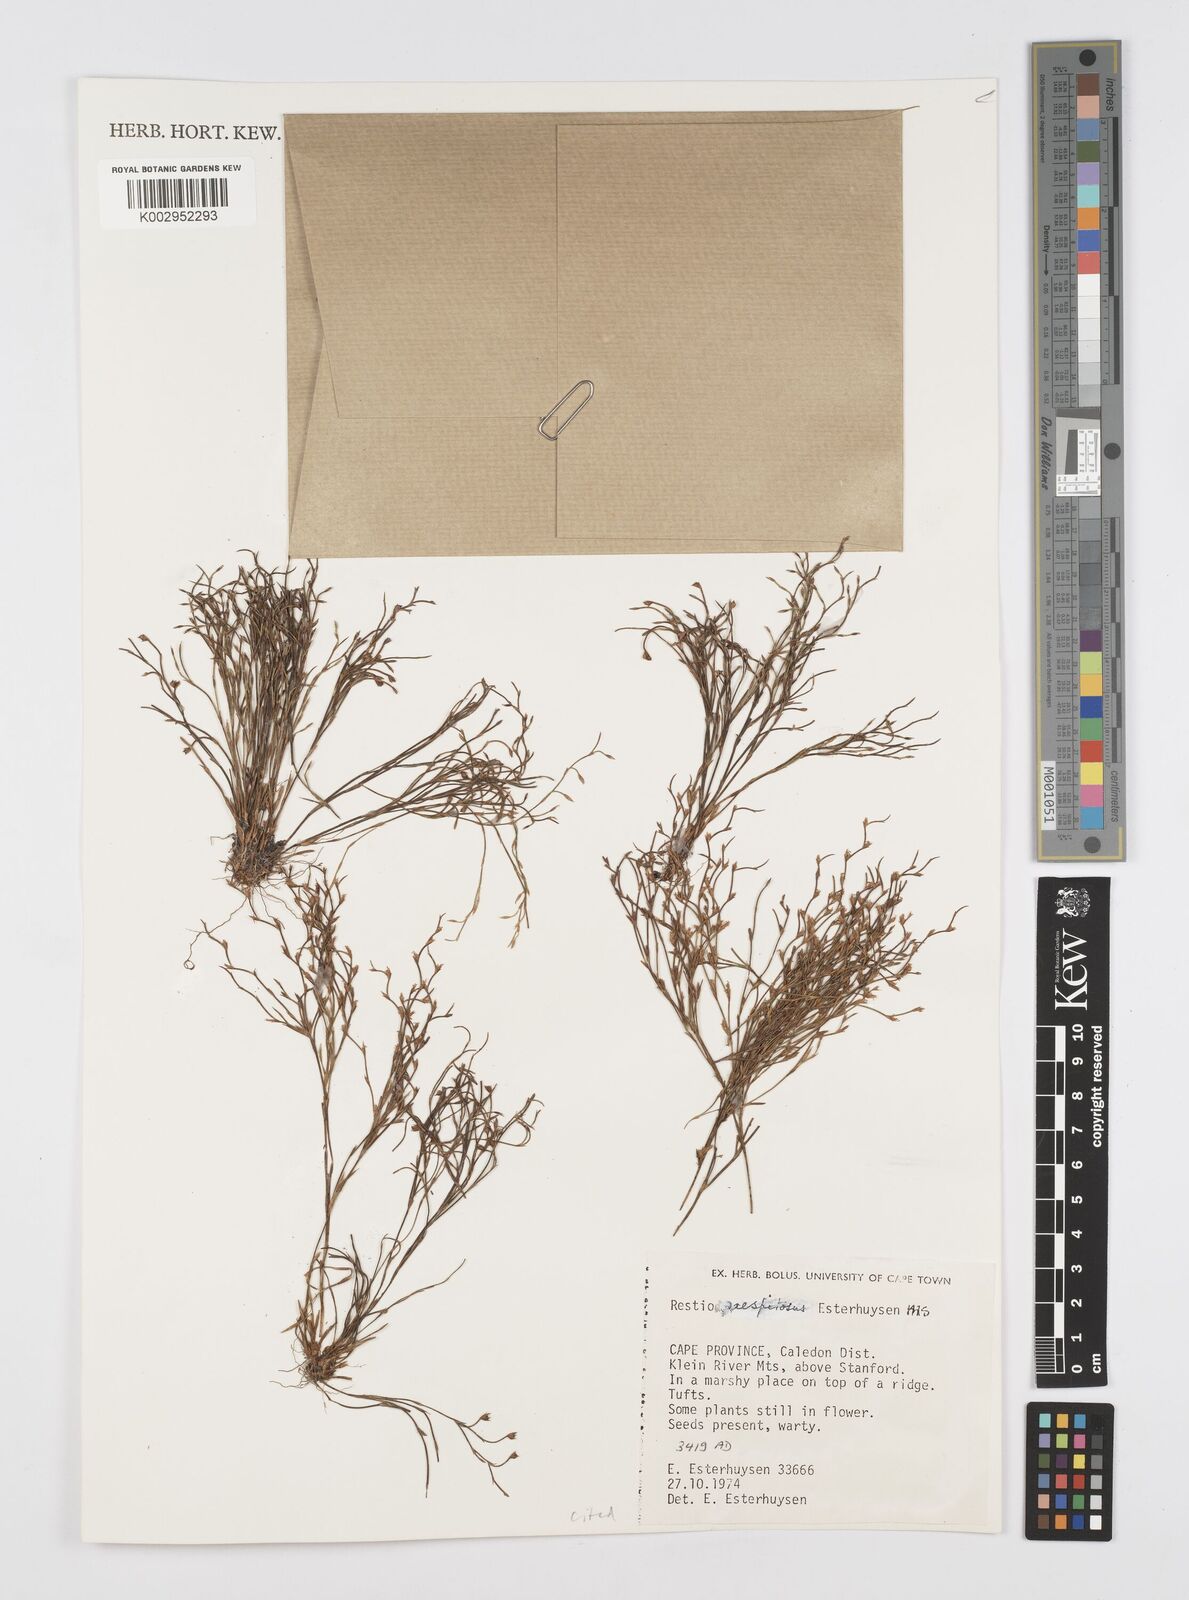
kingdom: Plantae
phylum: Tracheophyta
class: Liliopsida
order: Poales
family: Restionaceae
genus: Restio
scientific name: Restio caespitosus
